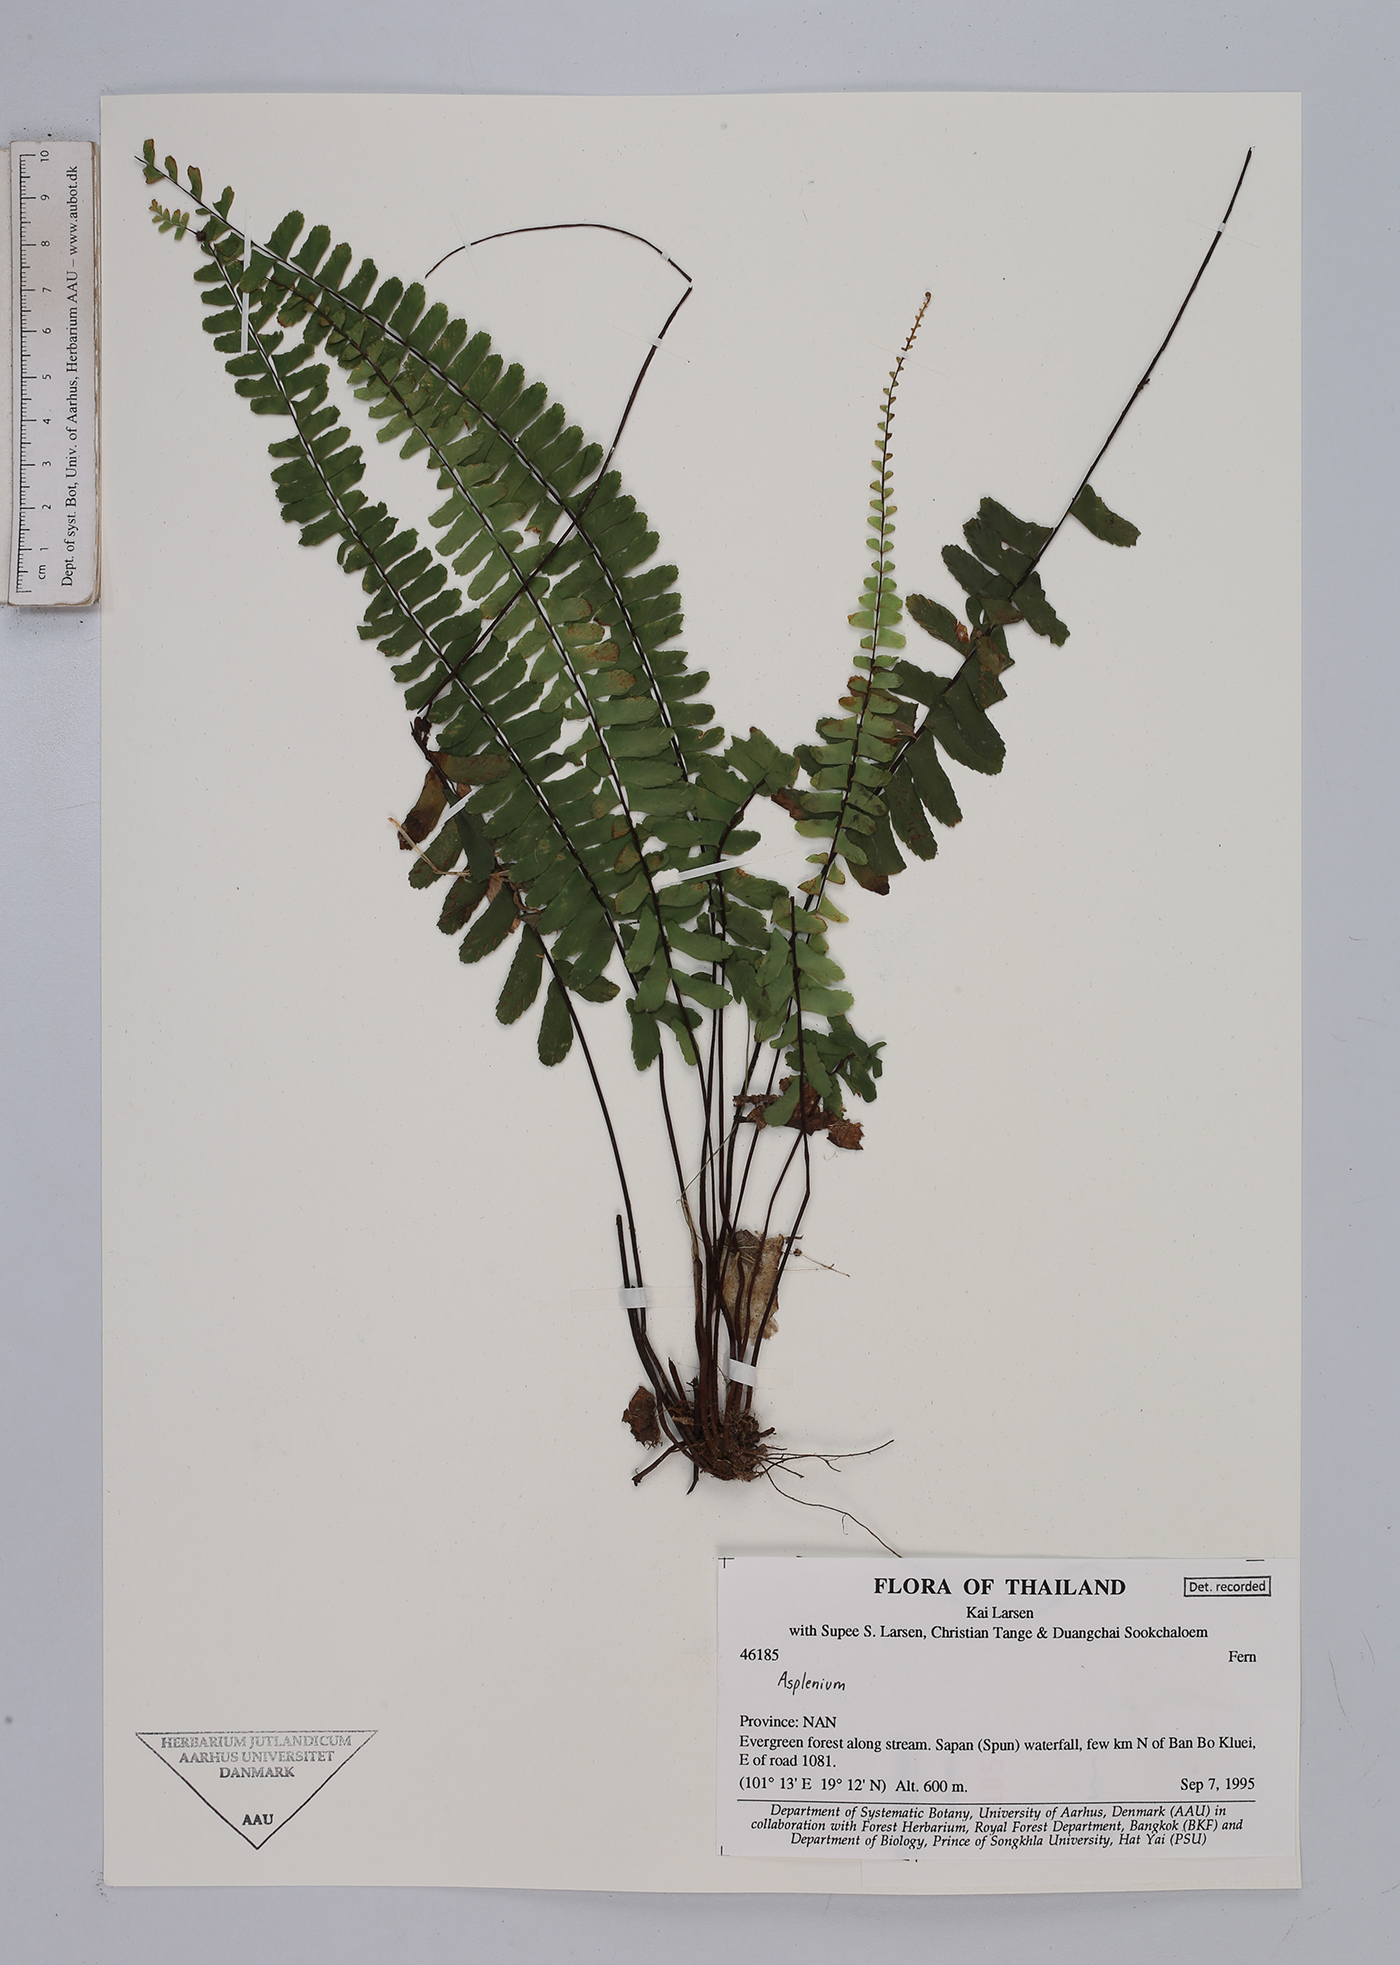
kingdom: Plantae
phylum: Tracheophyta
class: Polypodiopsida
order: Polypodiales
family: Aspleniaceae
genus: Asplenium
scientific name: Asplenium
